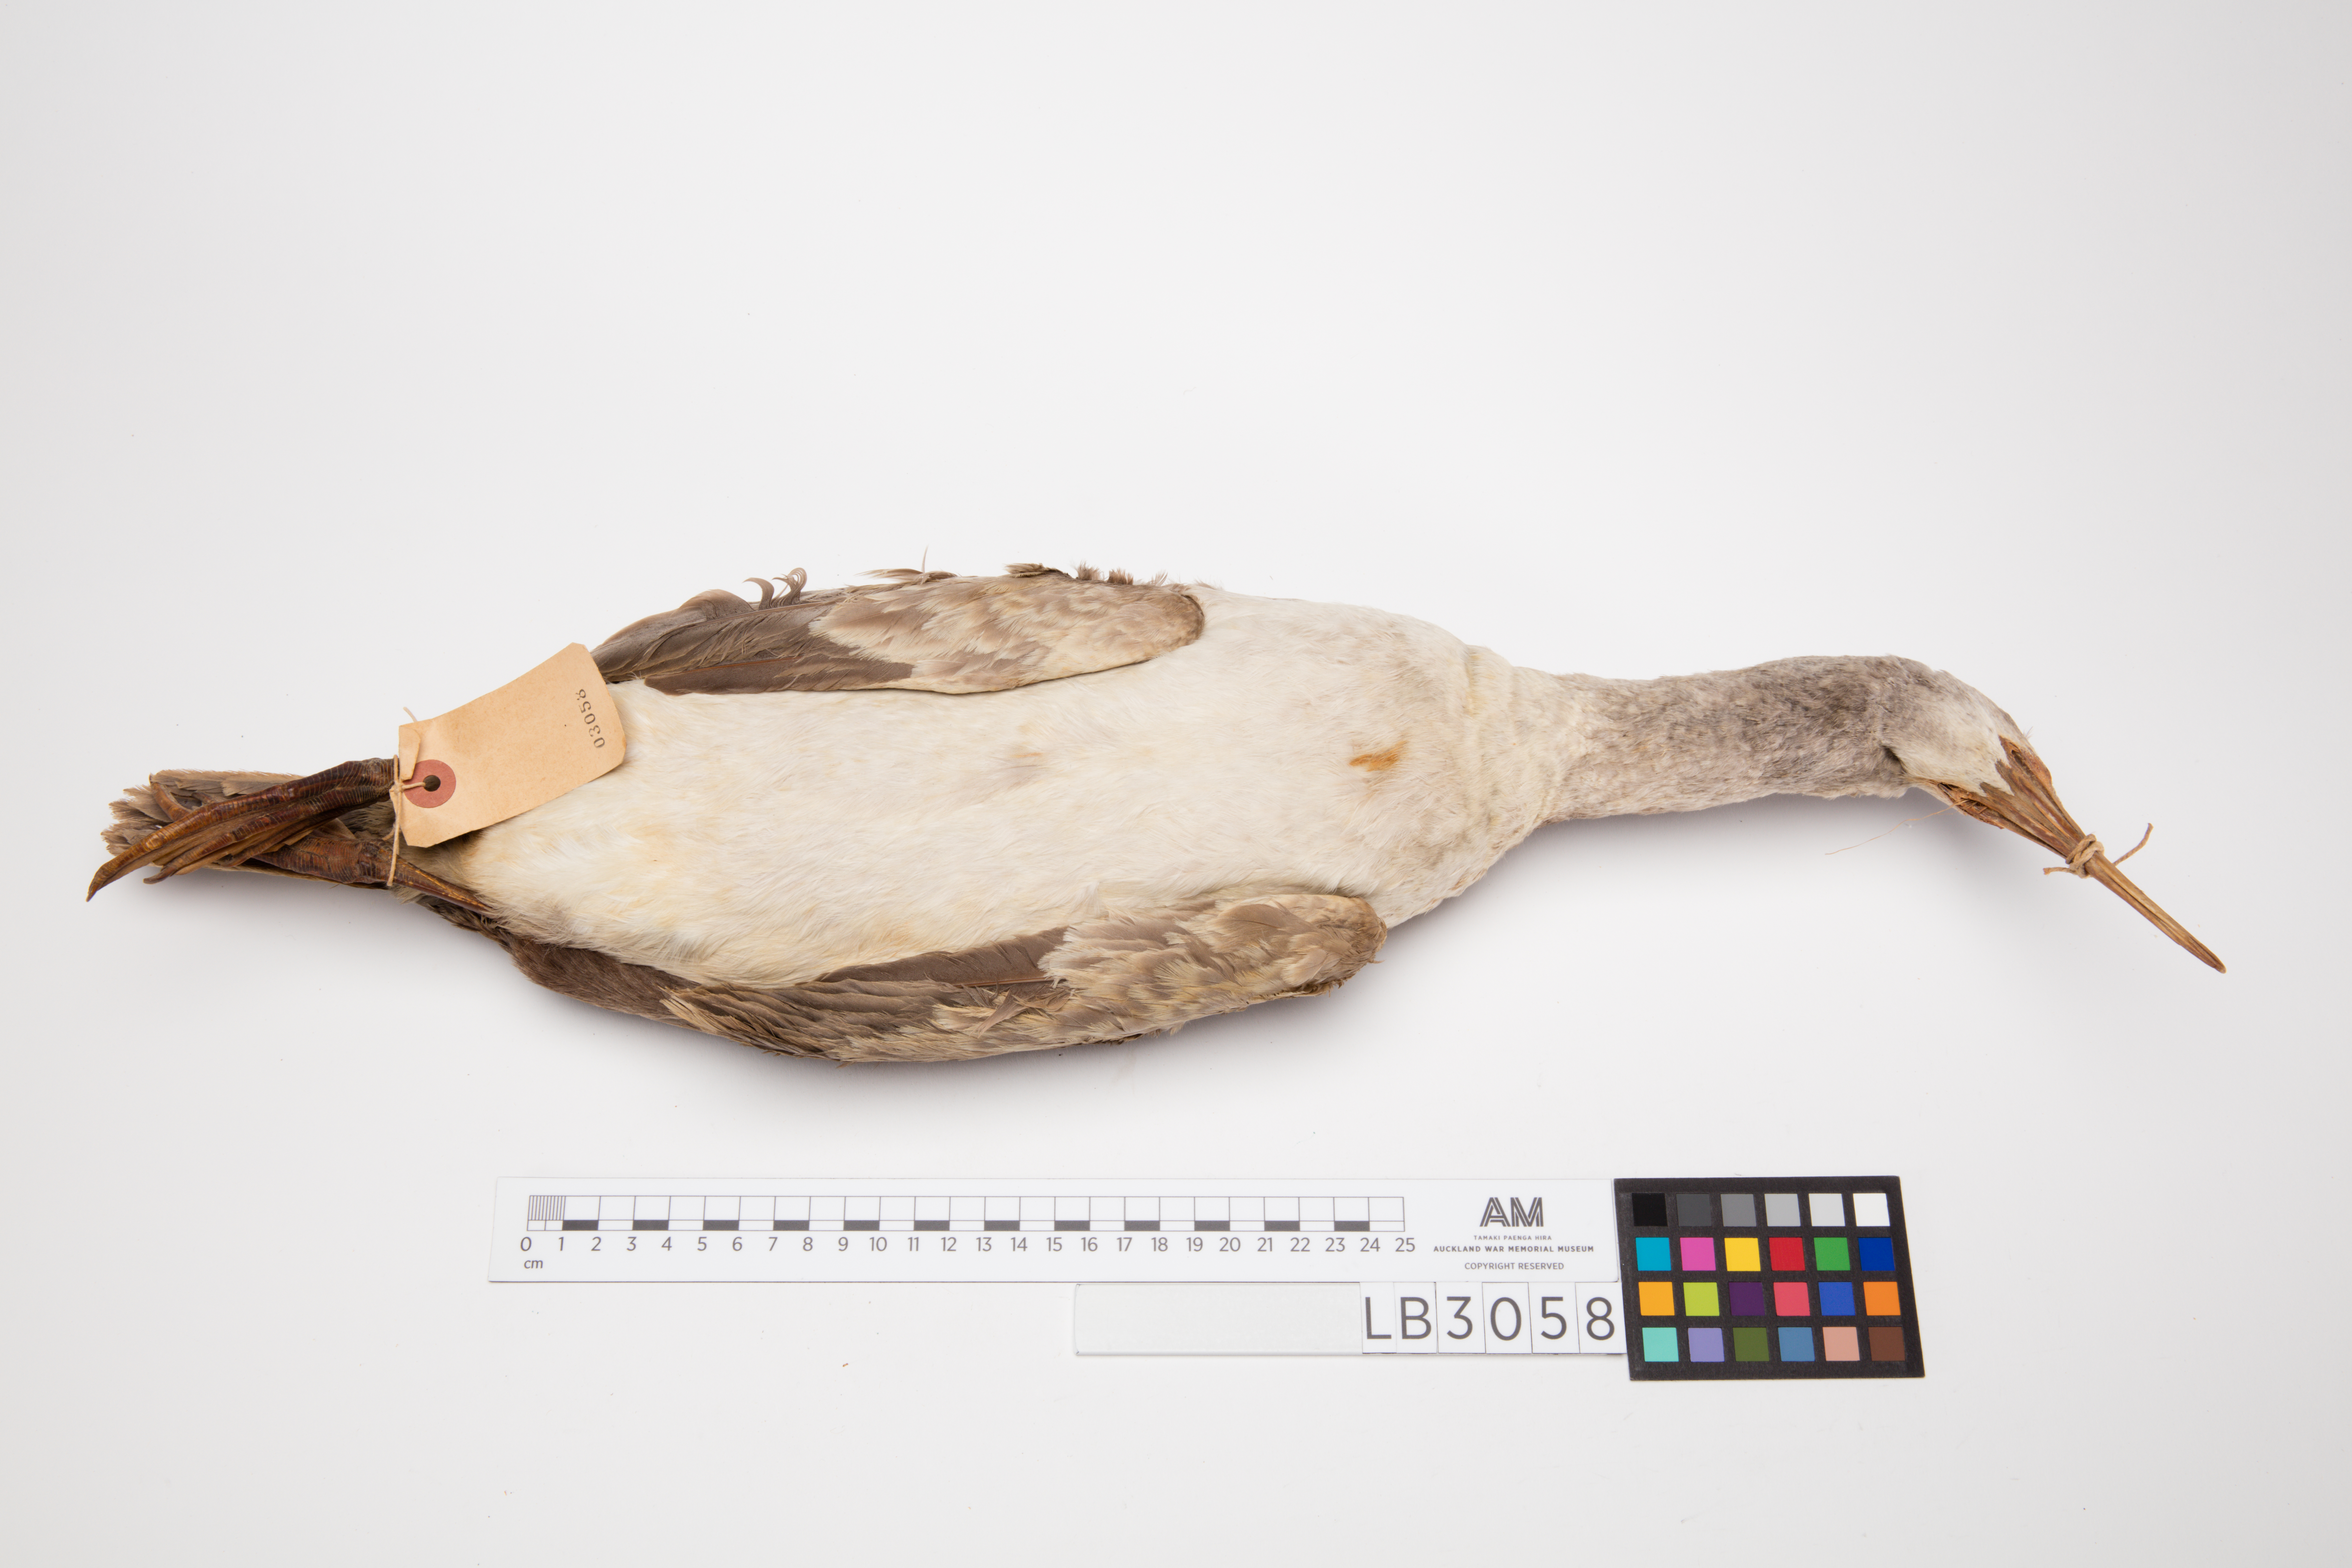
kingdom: Animalia
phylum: Chordata
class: Aves
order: Suliformes
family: Phalacrocoracidae
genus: Phalacrocorax
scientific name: Phalacrocorax punctatus
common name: Spotted shag
